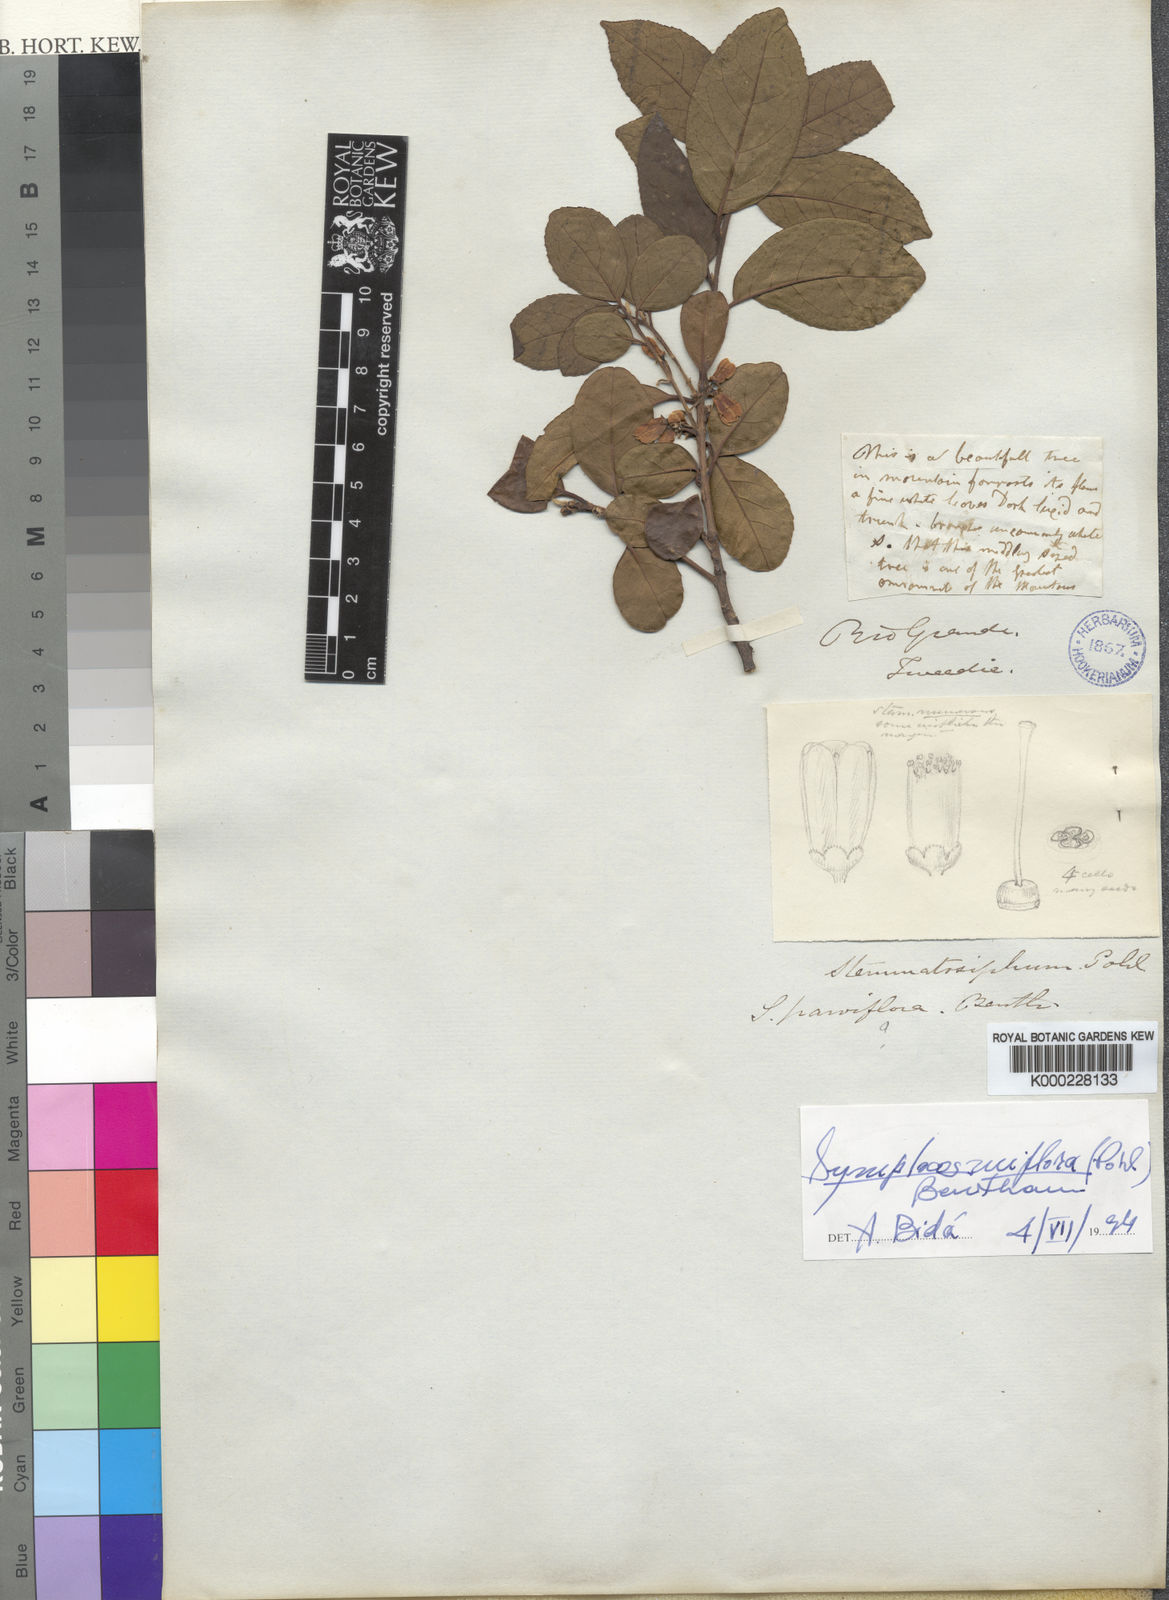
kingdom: Plantae
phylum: Tracheophyta
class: Magnoliopsida
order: Ericales
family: Symplocaceae
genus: Symplocos
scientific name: Symplocos uniflora
